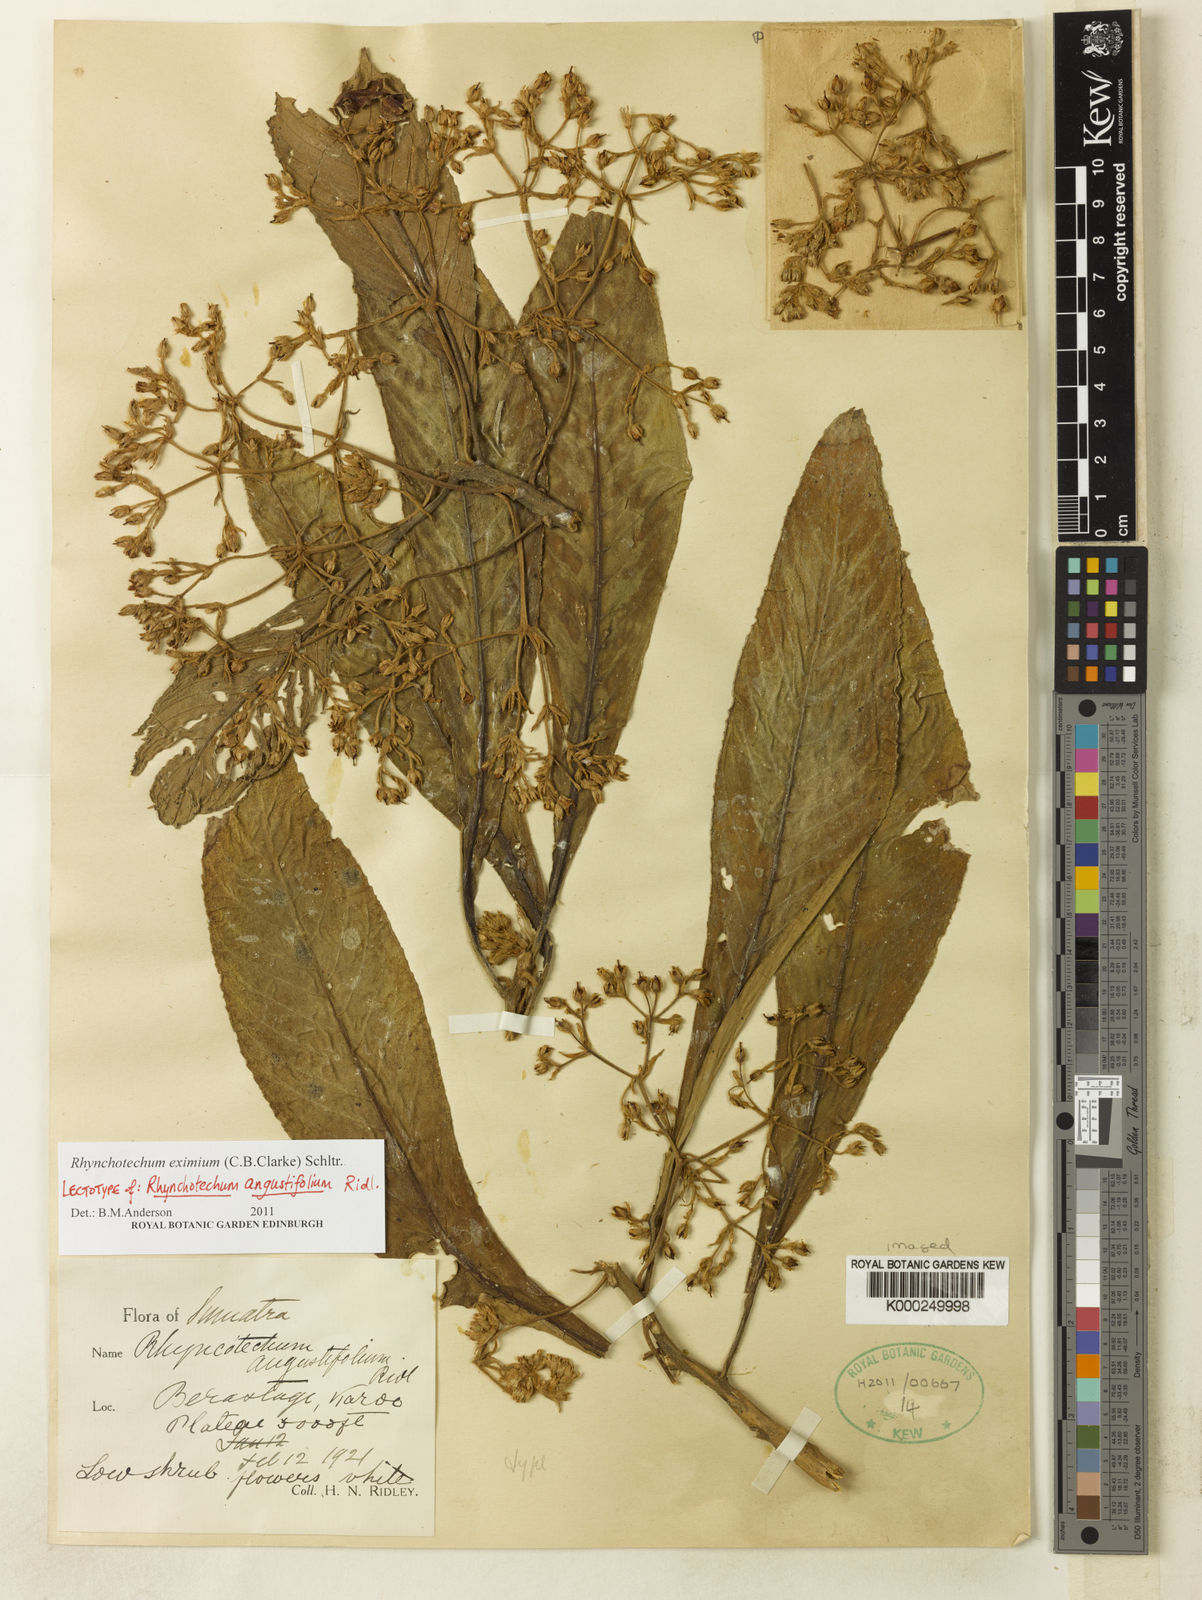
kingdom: Plantae
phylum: Tracheophyta
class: Magnoliopsida
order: Lamiales
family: Gesneriaceae
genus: Rhynchotechum
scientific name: Rhynchotechum angustifolium
